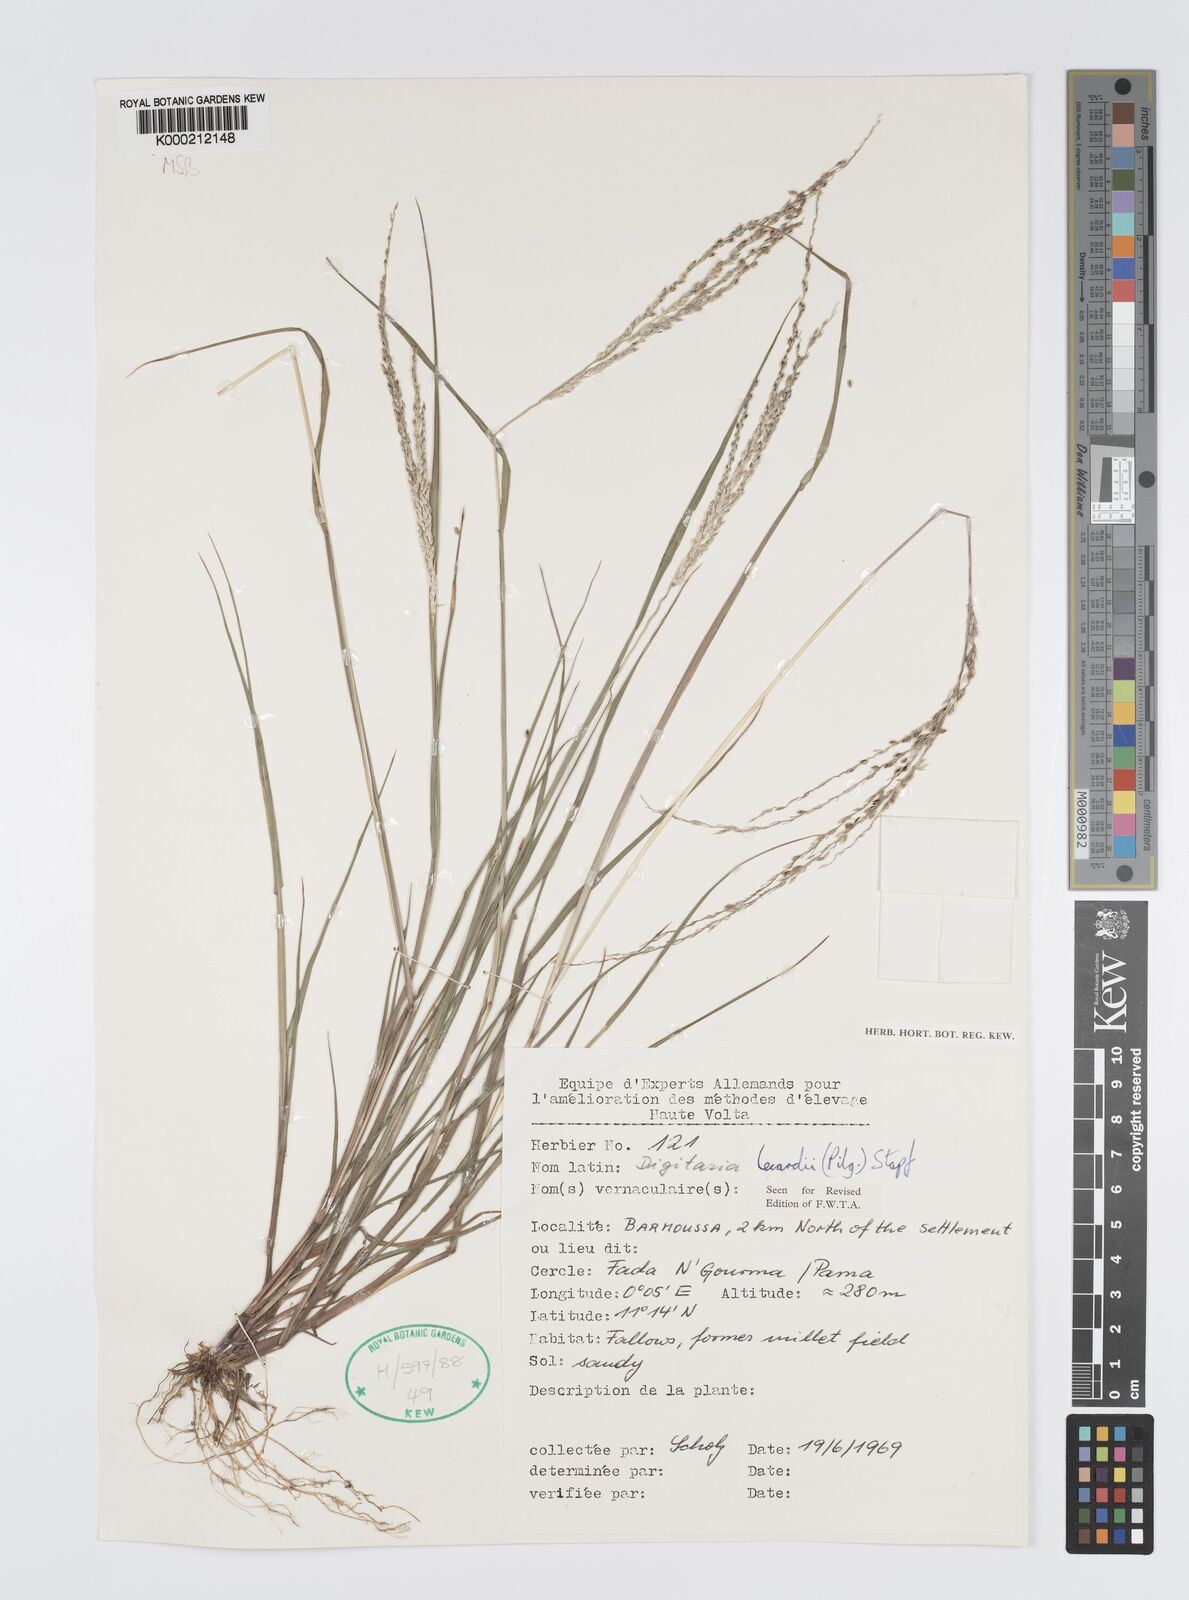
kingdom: Plantae
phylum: Tracheophyta
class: Liliopsida
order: Poales
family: Poaceae
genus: Digitaria
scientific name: Digitaria argillacea
